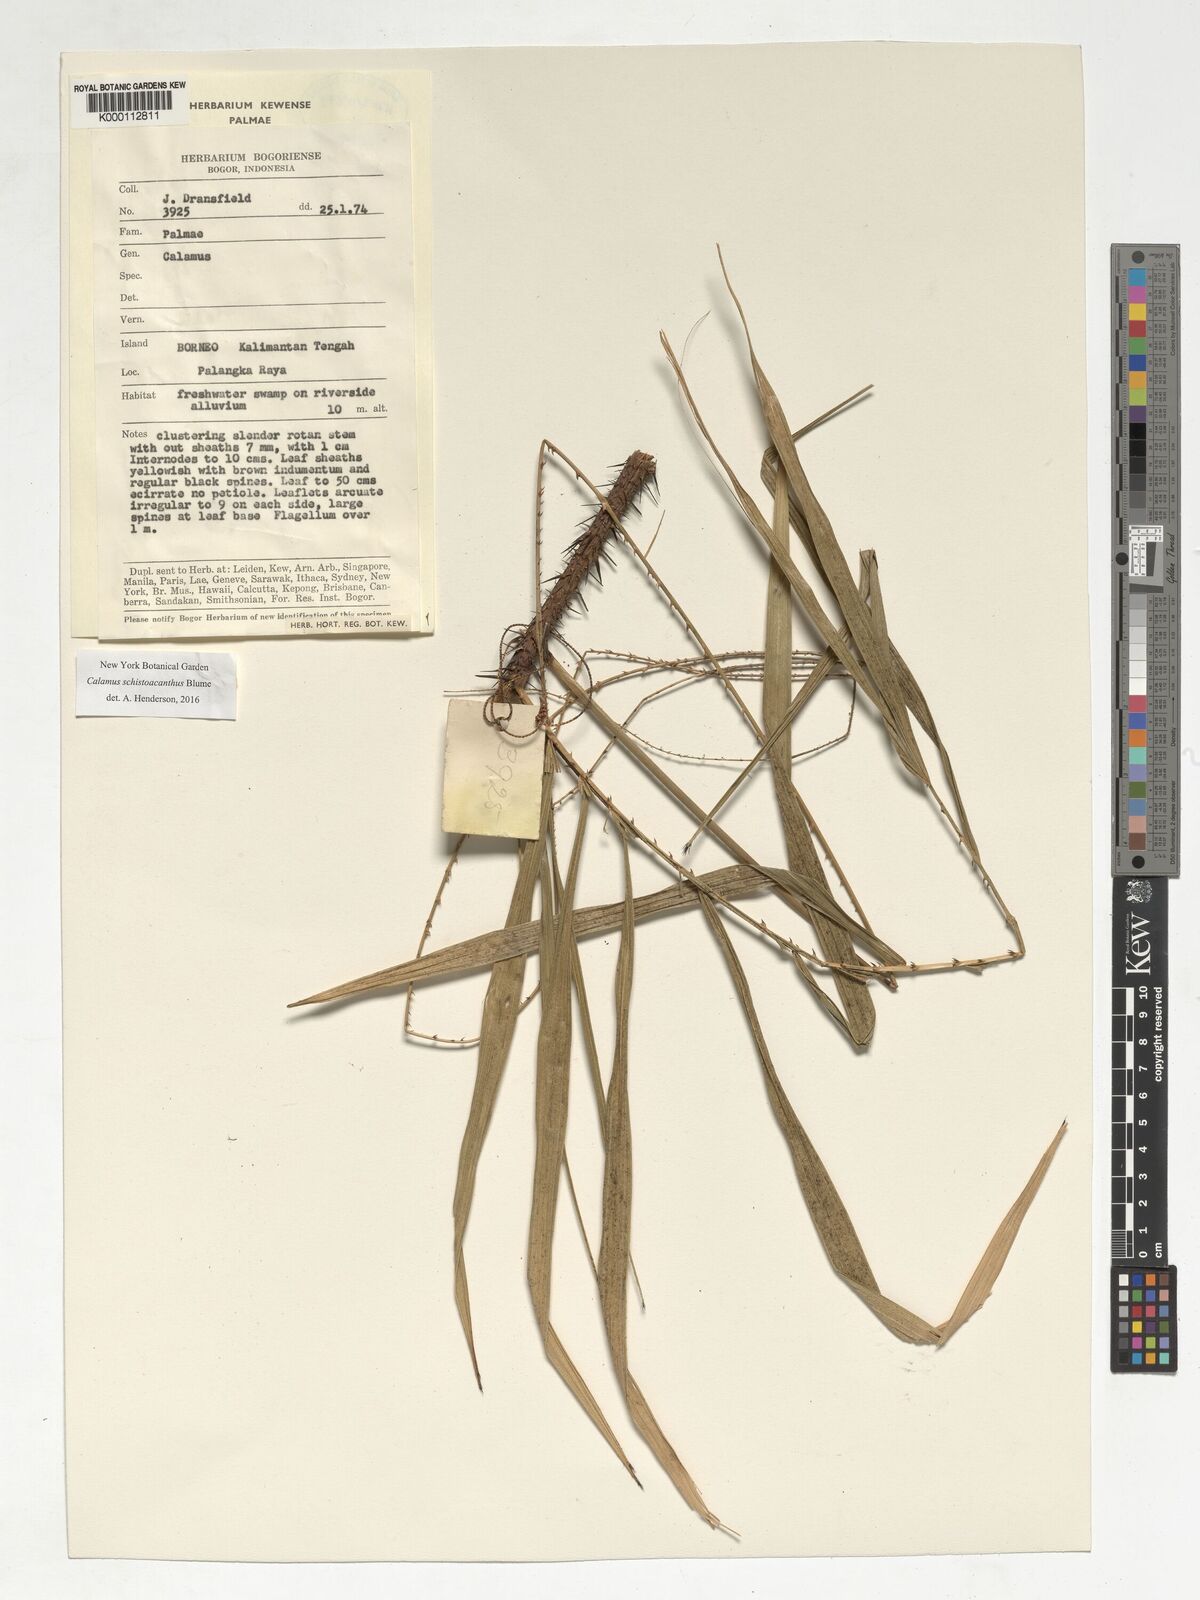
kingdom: Plantae
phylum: Tracheophyta
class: Liliopsida
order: Arecales
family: Arecaceae
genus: Calamus
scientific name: Calamus schistoacanthus
